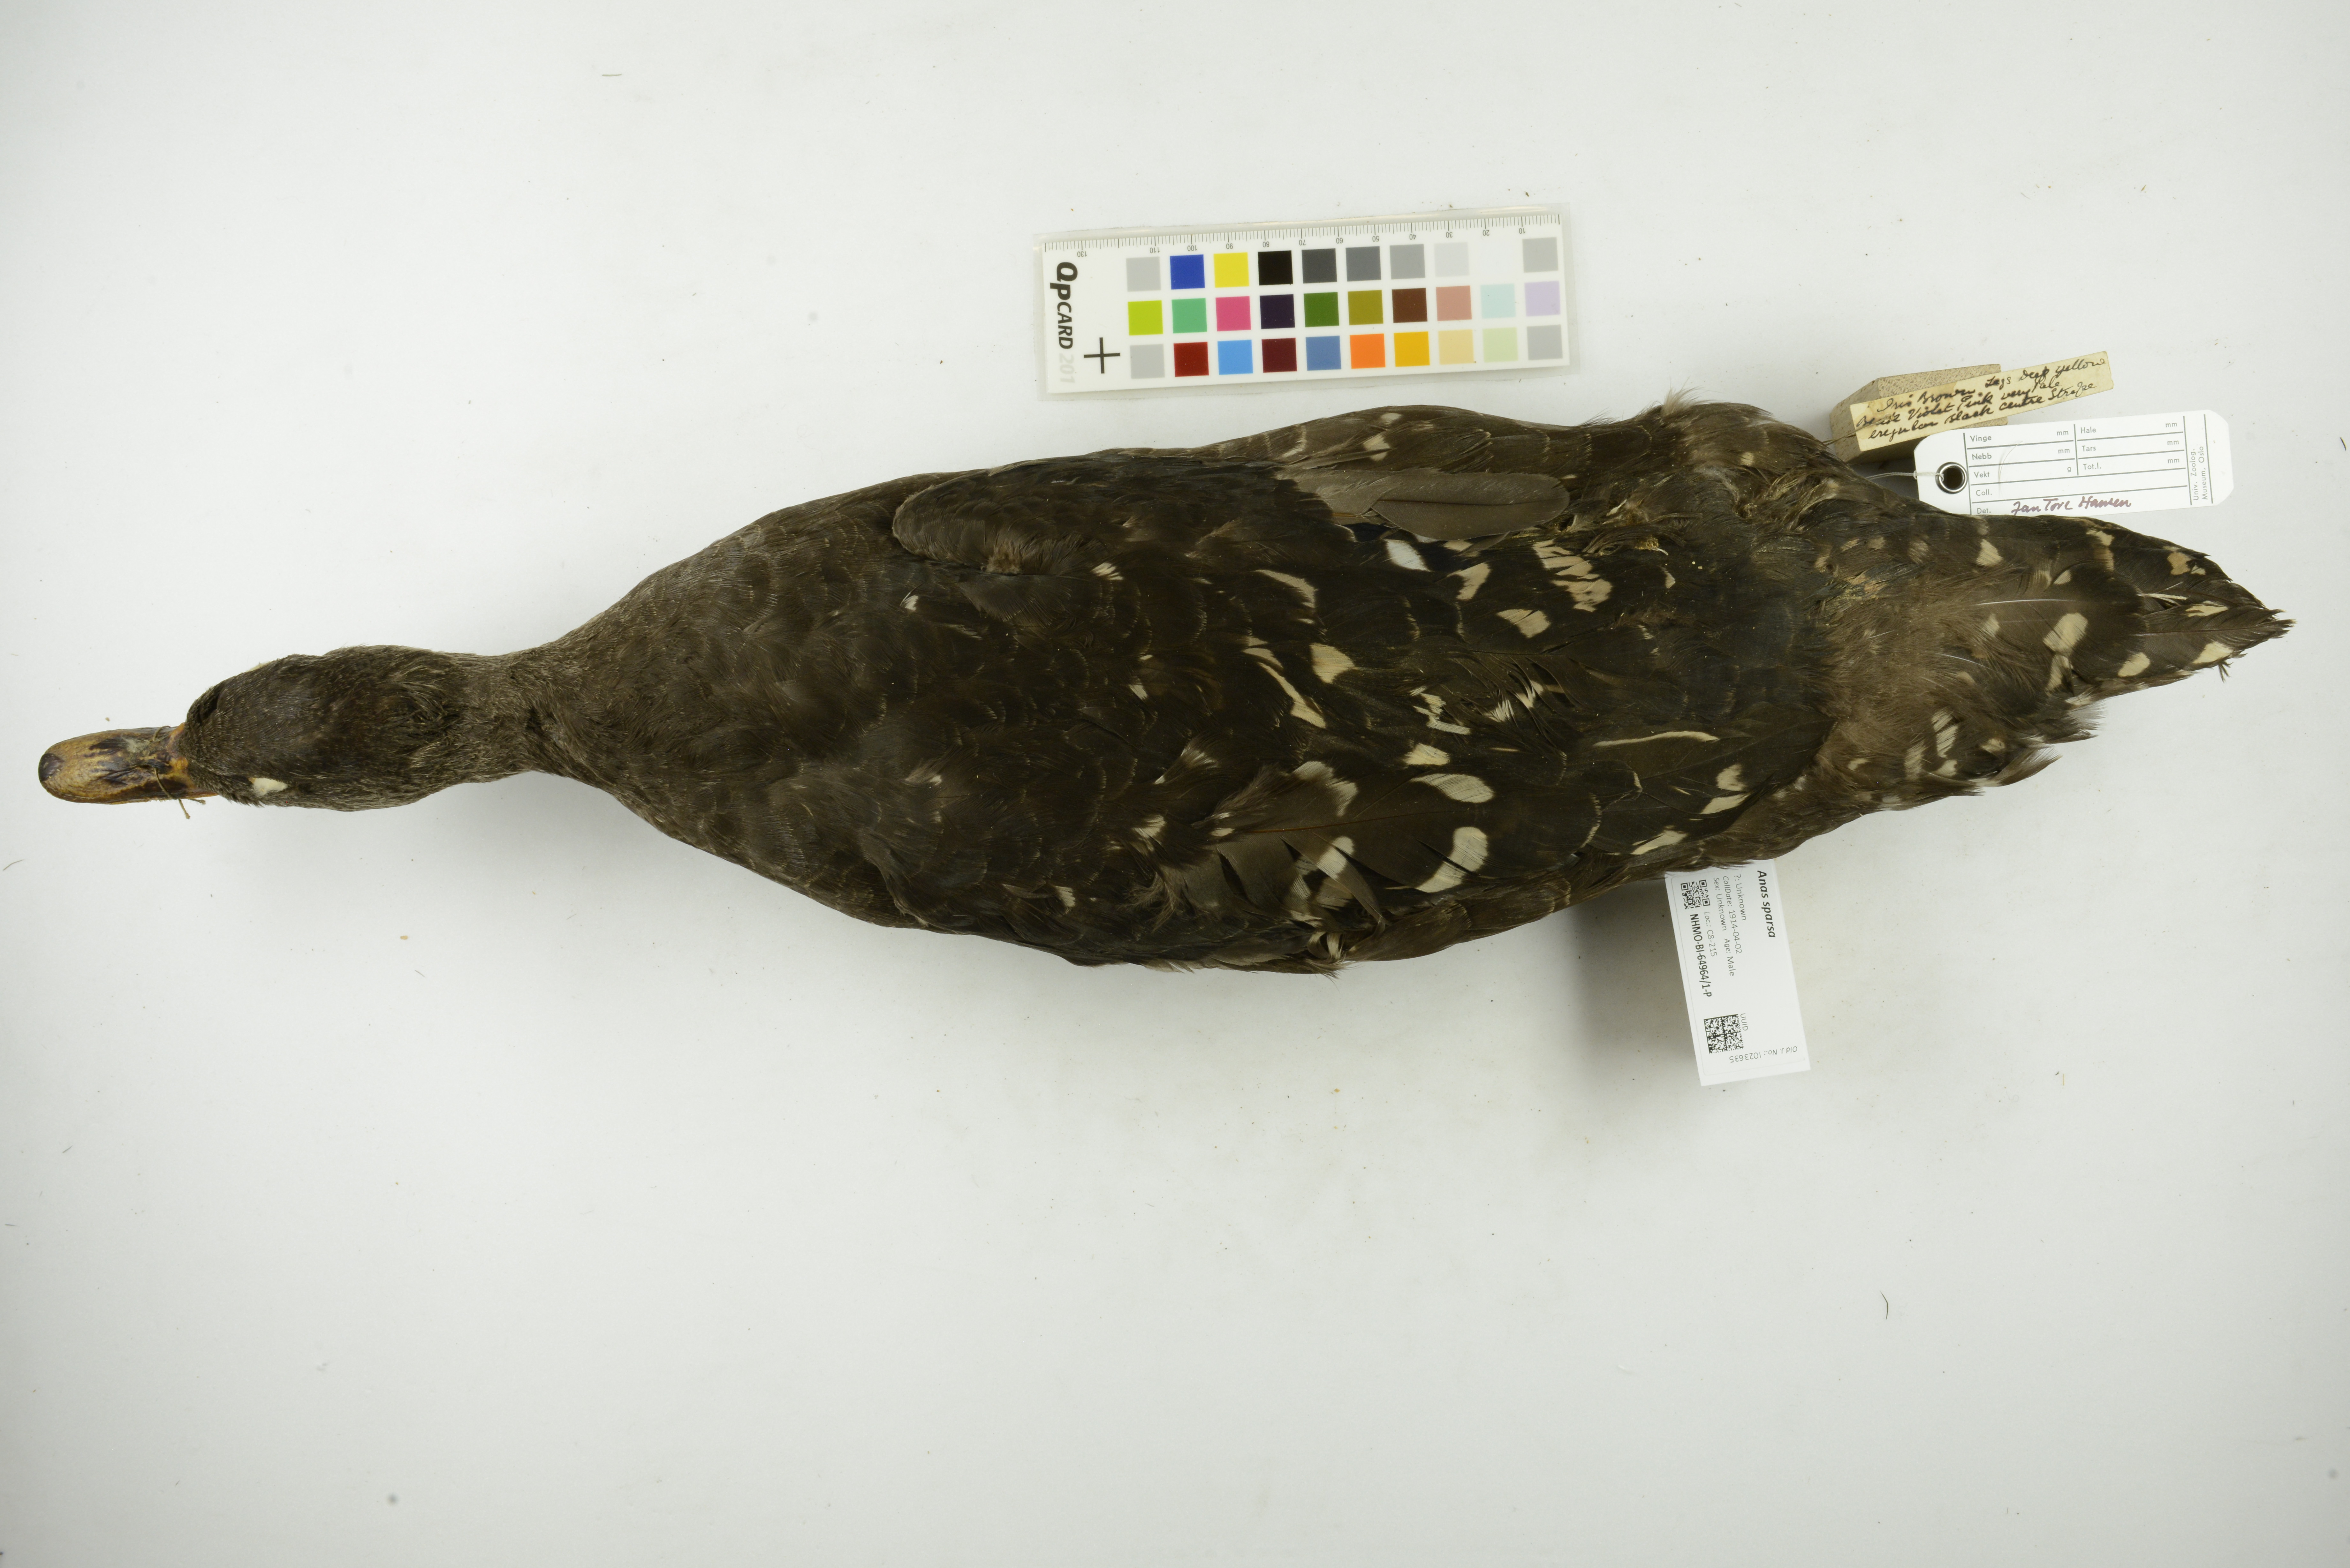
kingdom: Animalia
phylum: Chordata
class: Aves
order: Anseriformes
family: Anatidae
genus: Anas
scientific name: Anas sparsa
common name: African black duck
